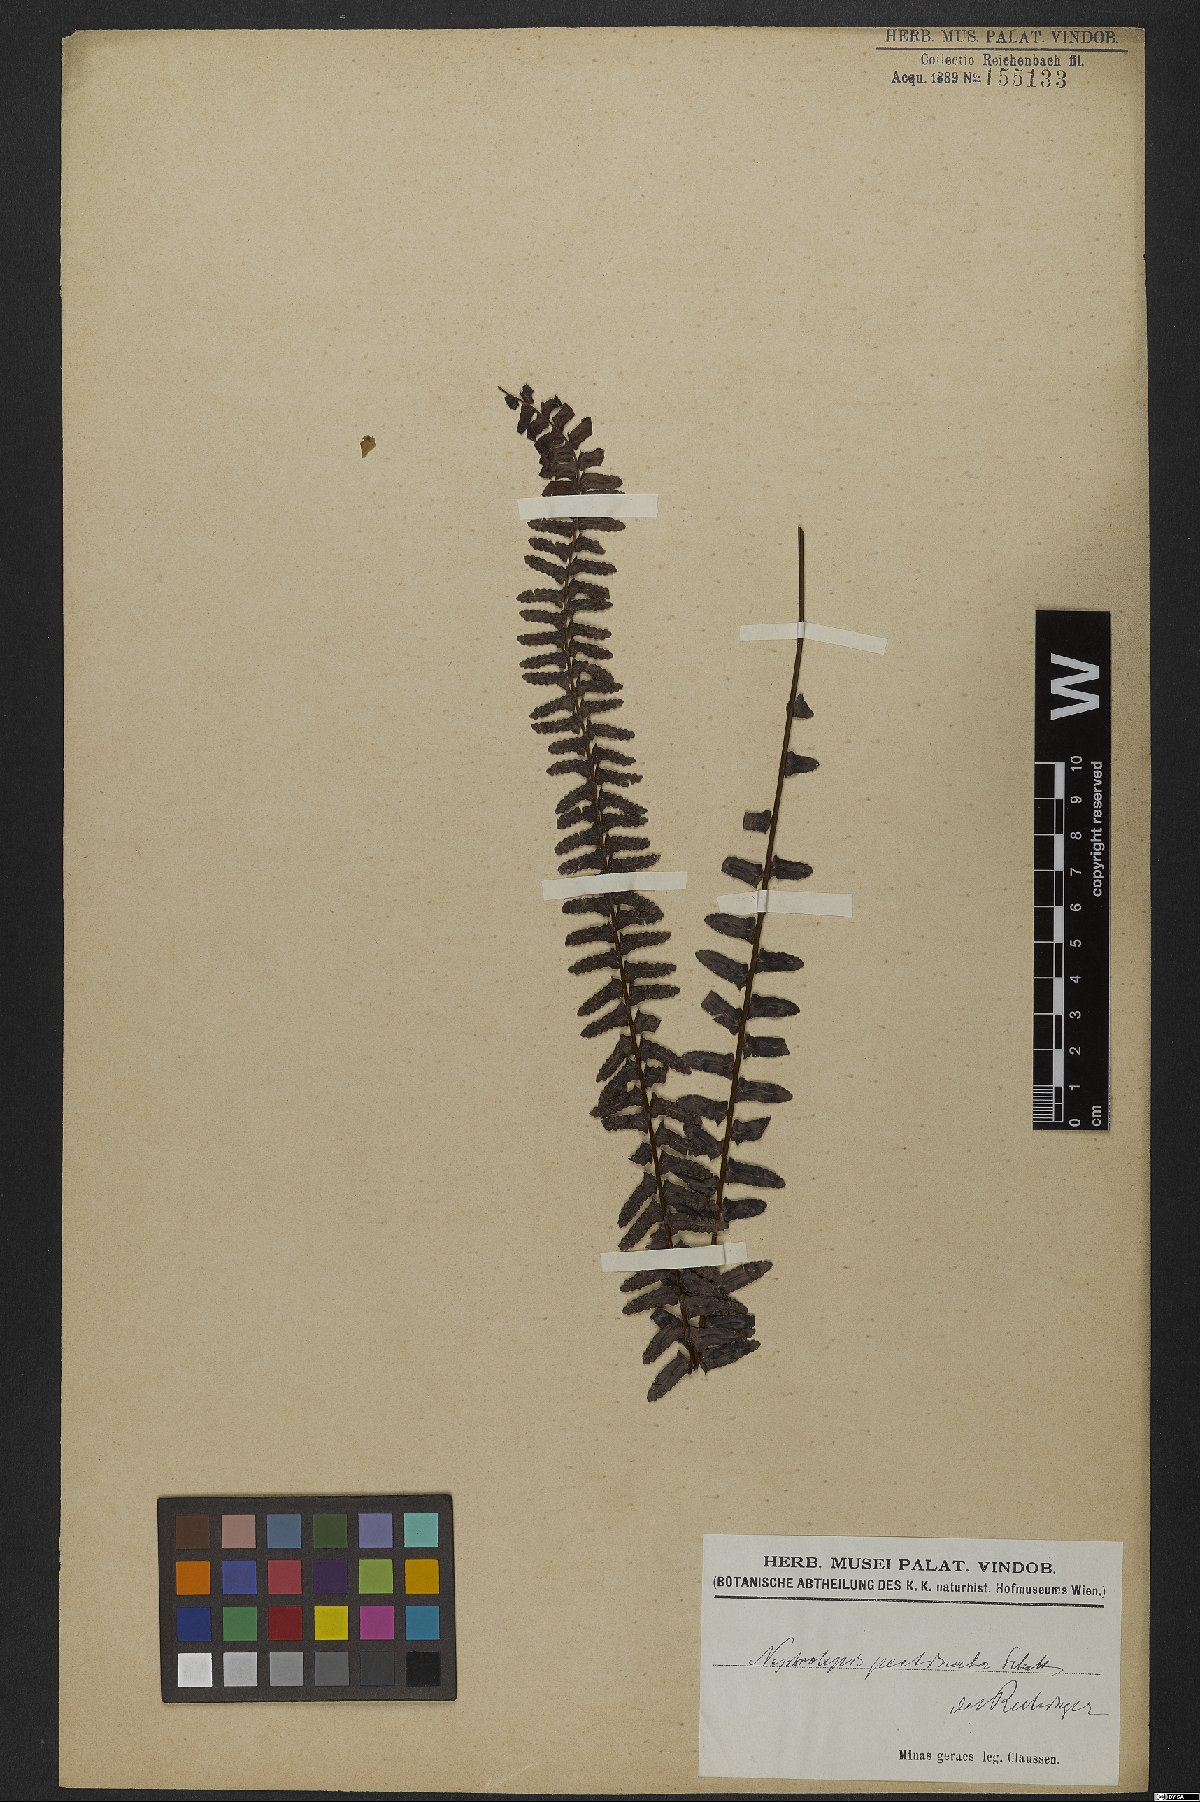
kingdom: Plantae
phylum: Tracheophyta
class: Polypodiopsida
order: Polypodiales
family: Nephrolepidaceae
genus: Nephrolepis
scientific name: Nephrolepis pectinata
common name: Basket fern
